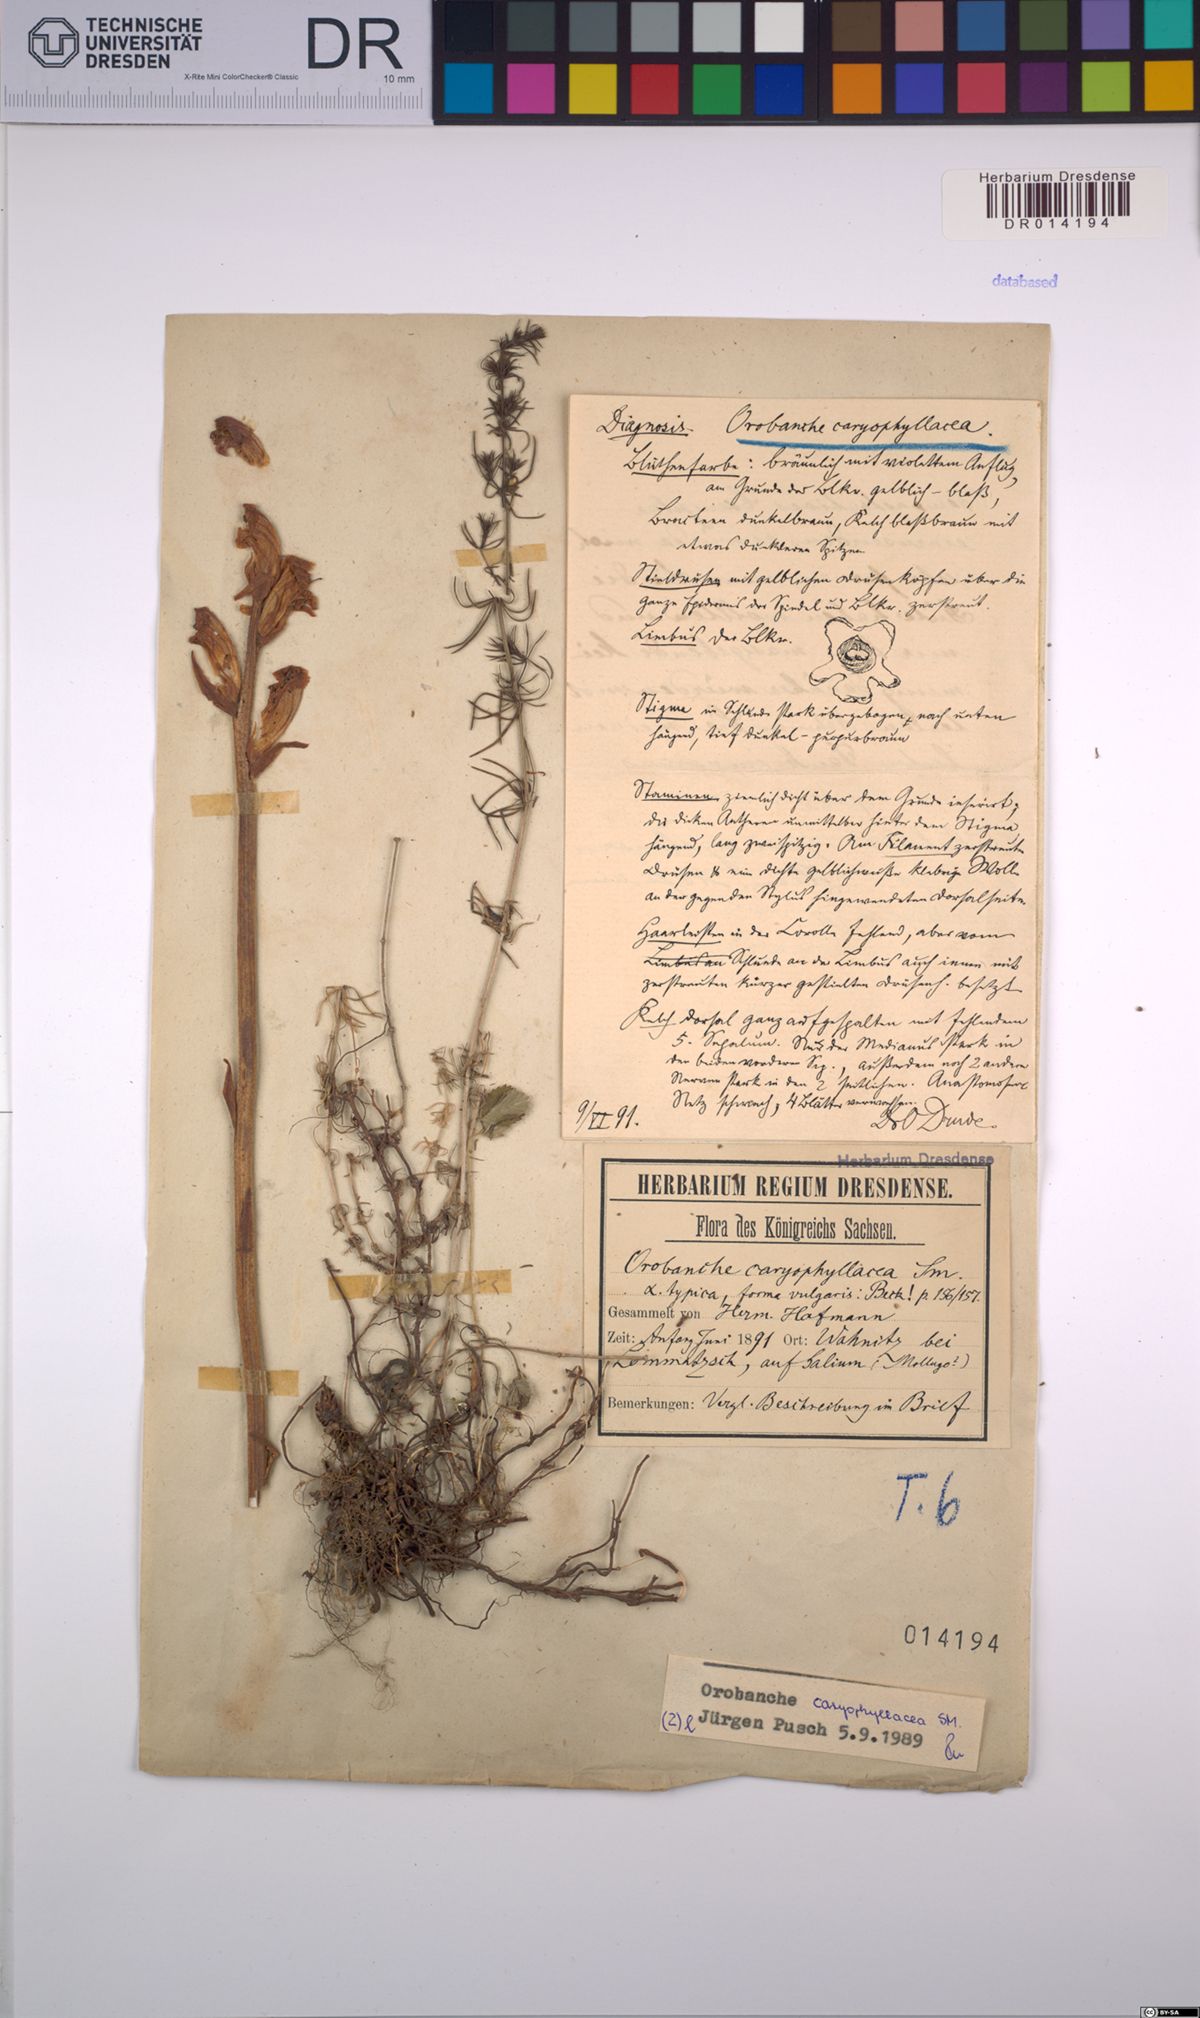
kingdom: Plantae
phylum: Tracheophyta
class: Magnoliopsida
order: Lamiales
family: Orobanchaceae
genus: Orobanche
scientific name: Orobanche caryophyllacea
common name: Bedstraw broomrape
